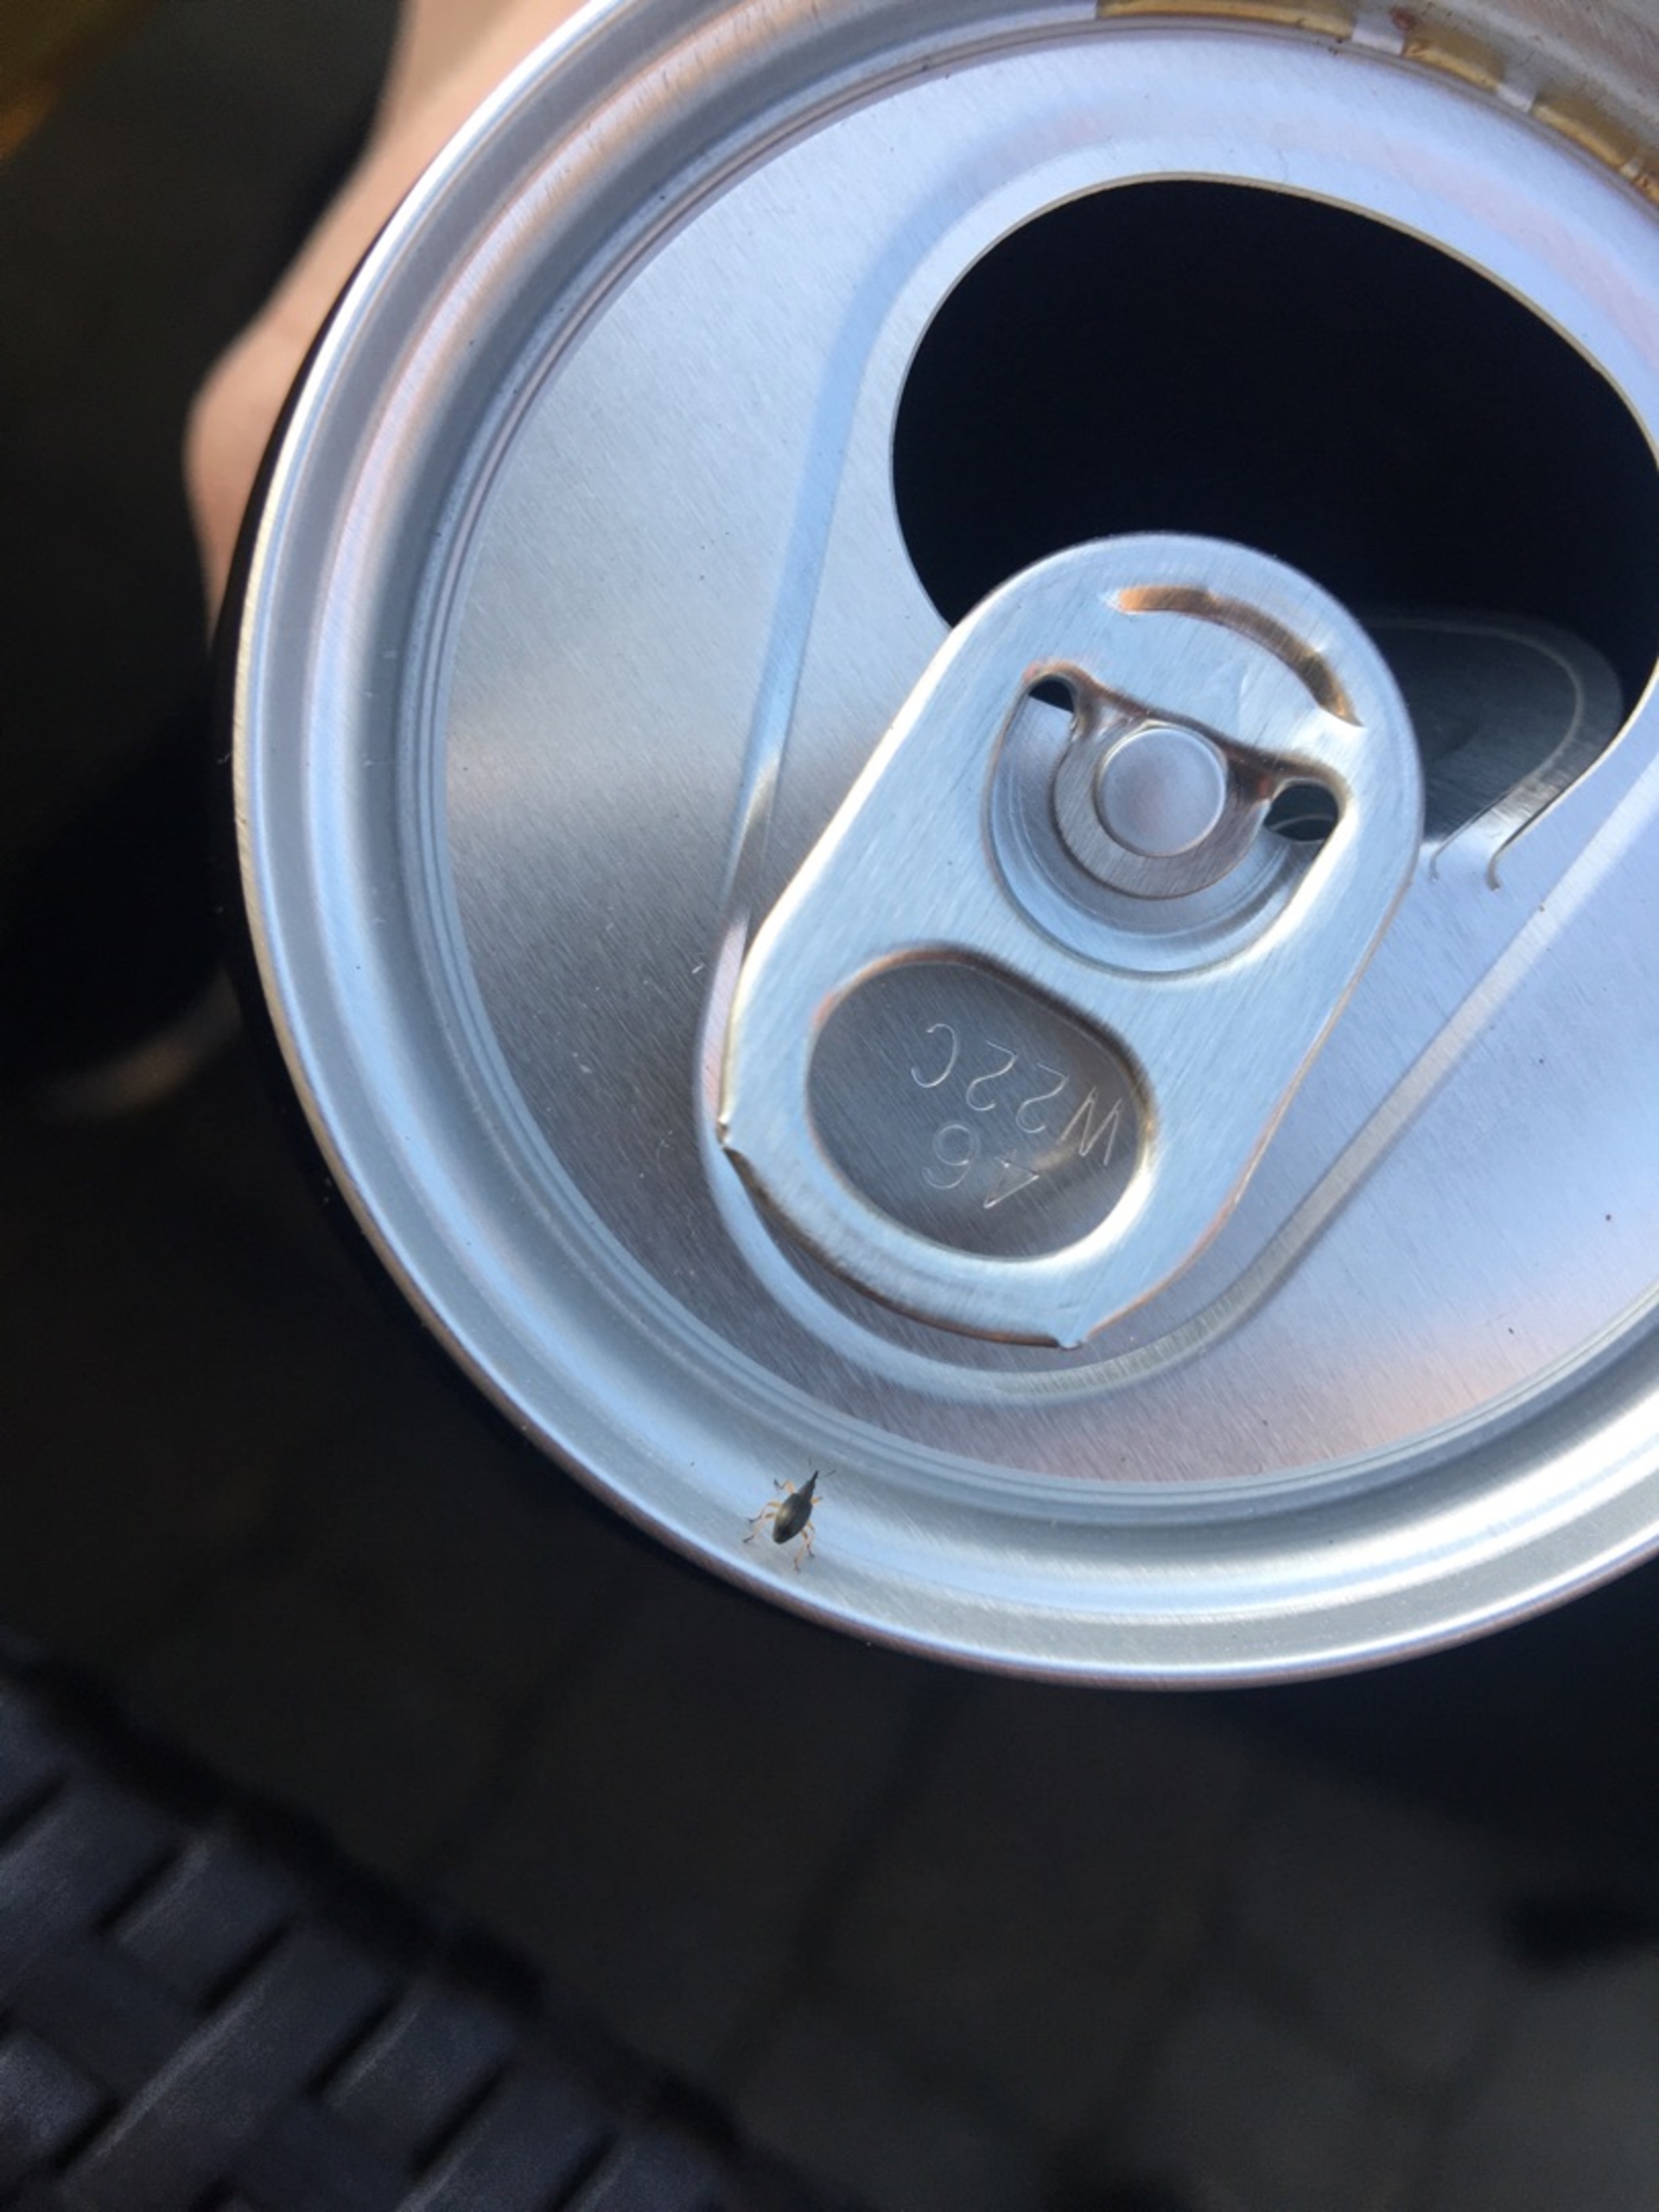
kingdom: Animalia
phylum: Arthropoda
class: Insecta
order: Coleoptera
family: Apionidae
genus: Protapion
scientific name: Protapion fulvipes
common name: Hvidkløversnudebille
